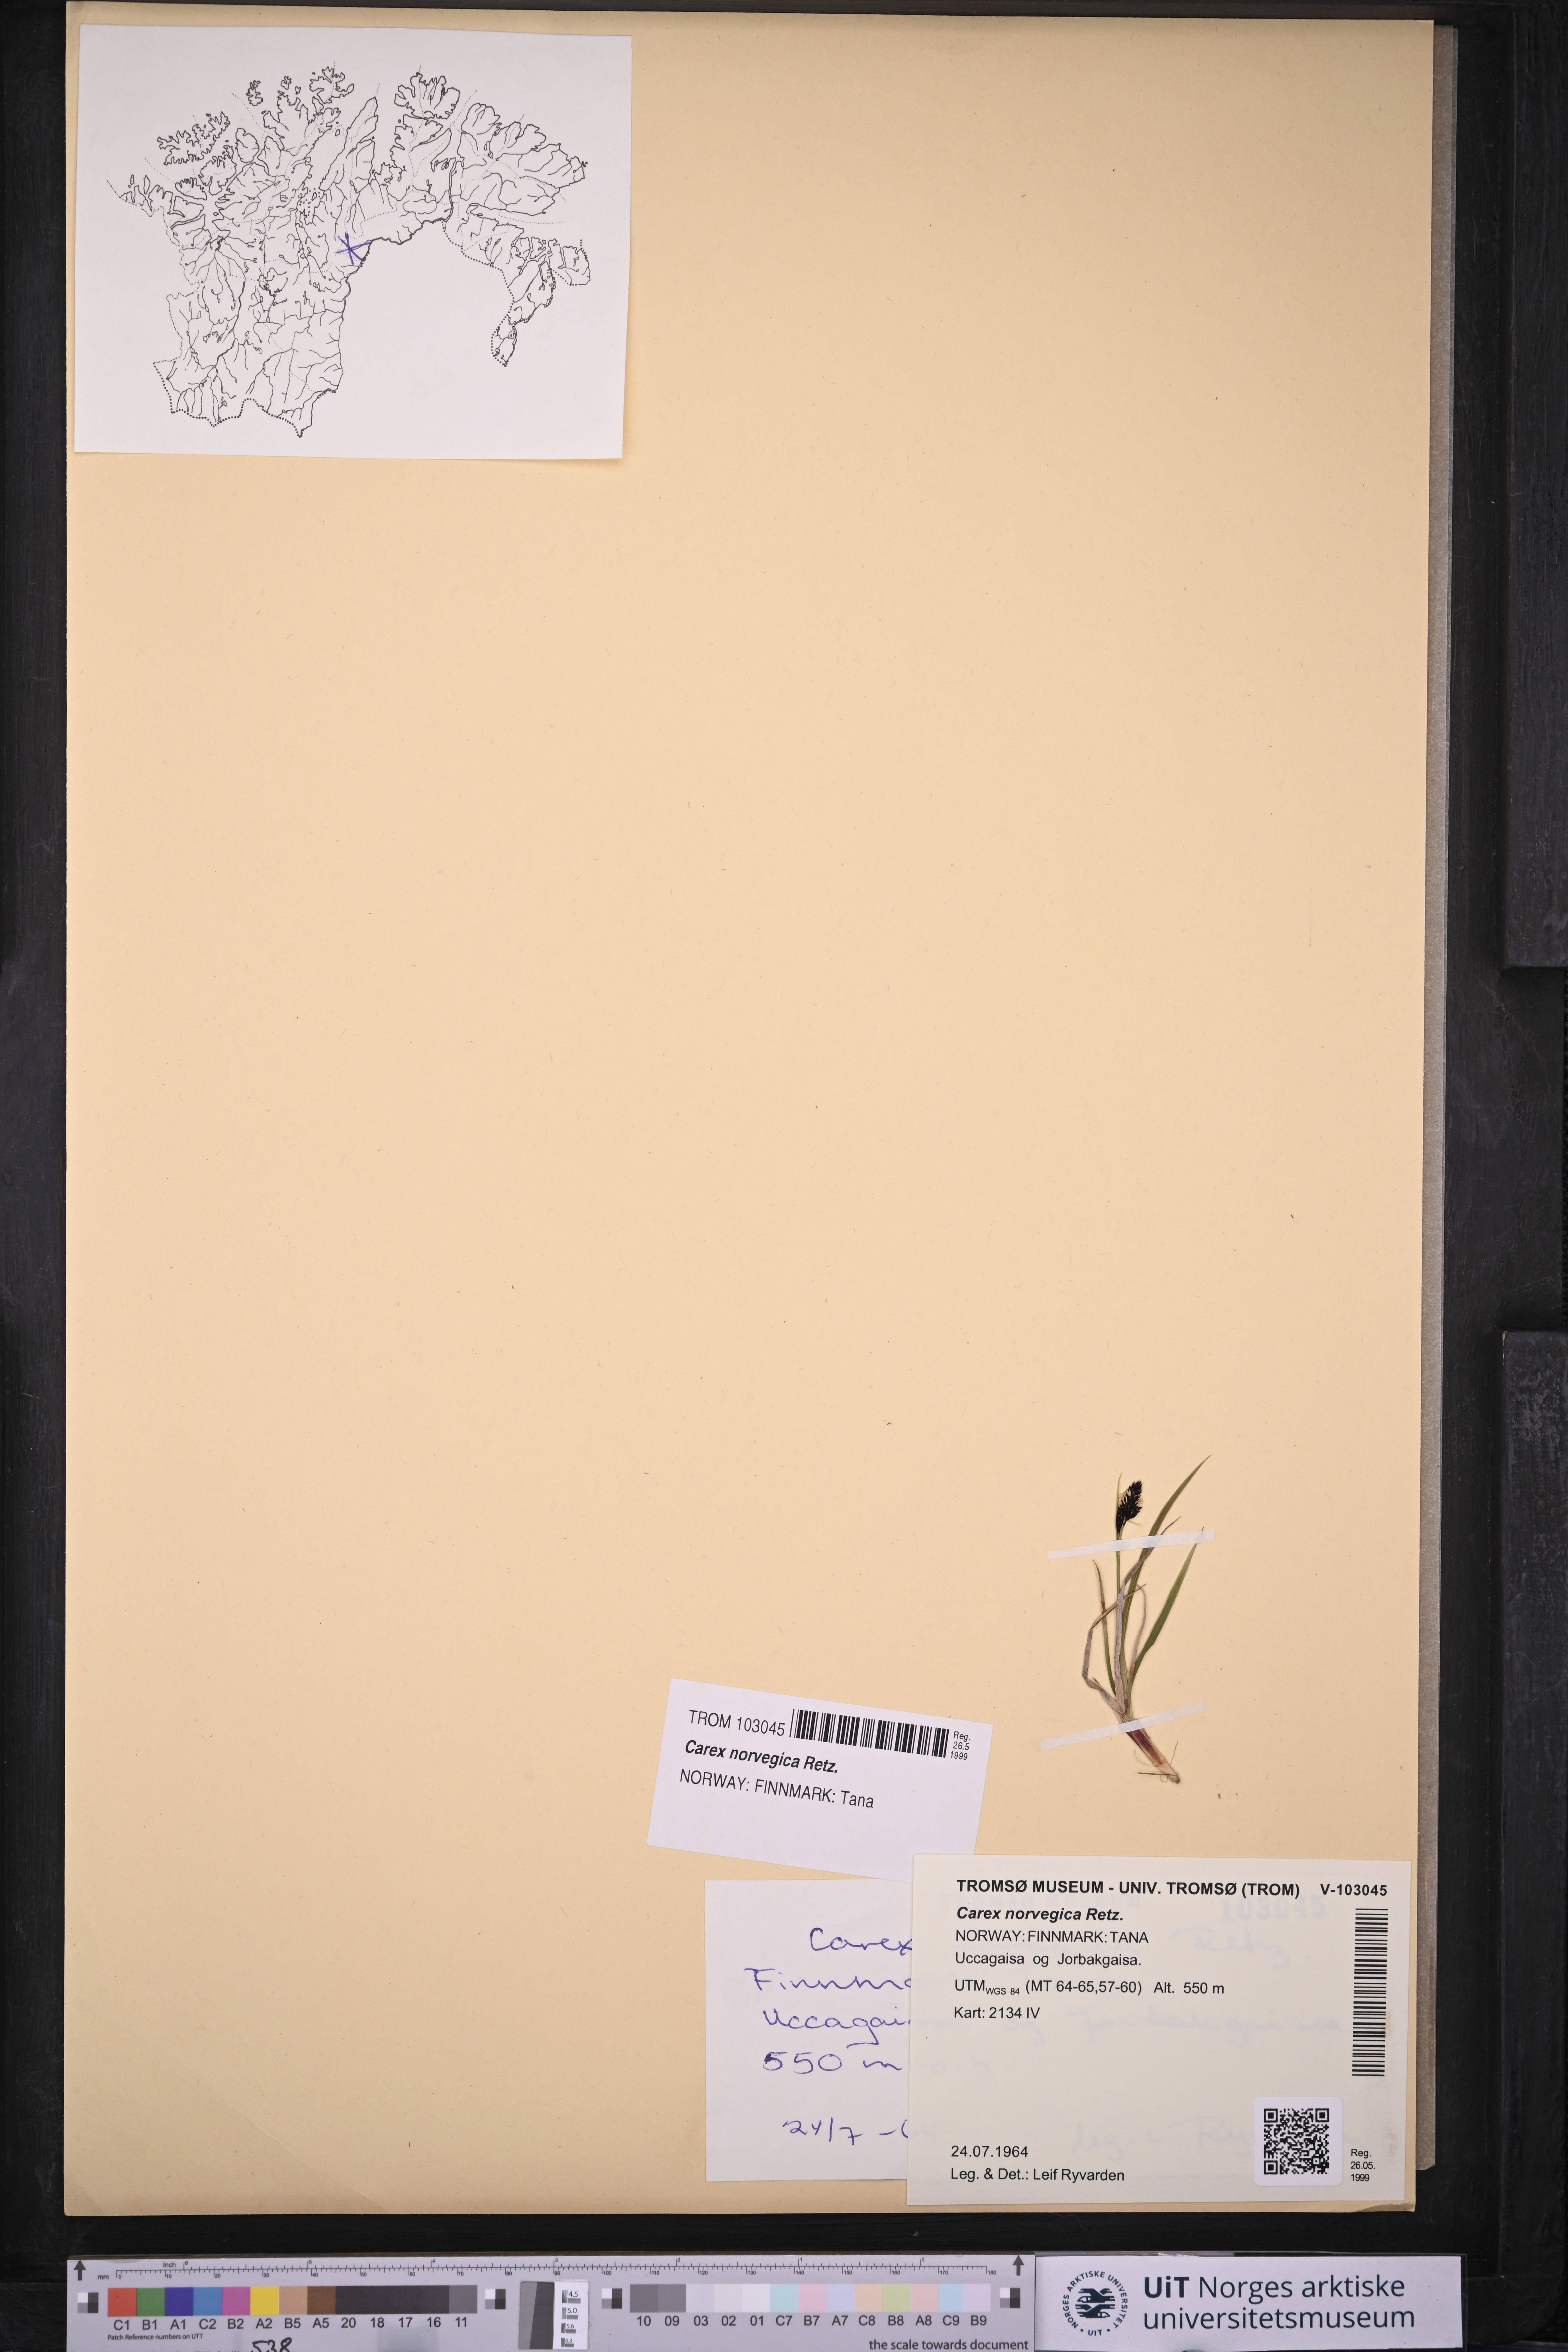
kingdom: Plantae
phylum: Tracheophyta
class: Liliopsida
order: Poales
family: Cyperaceae
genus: Carex
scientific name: Carex norvegica
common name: Close-headed alpine-sedge
